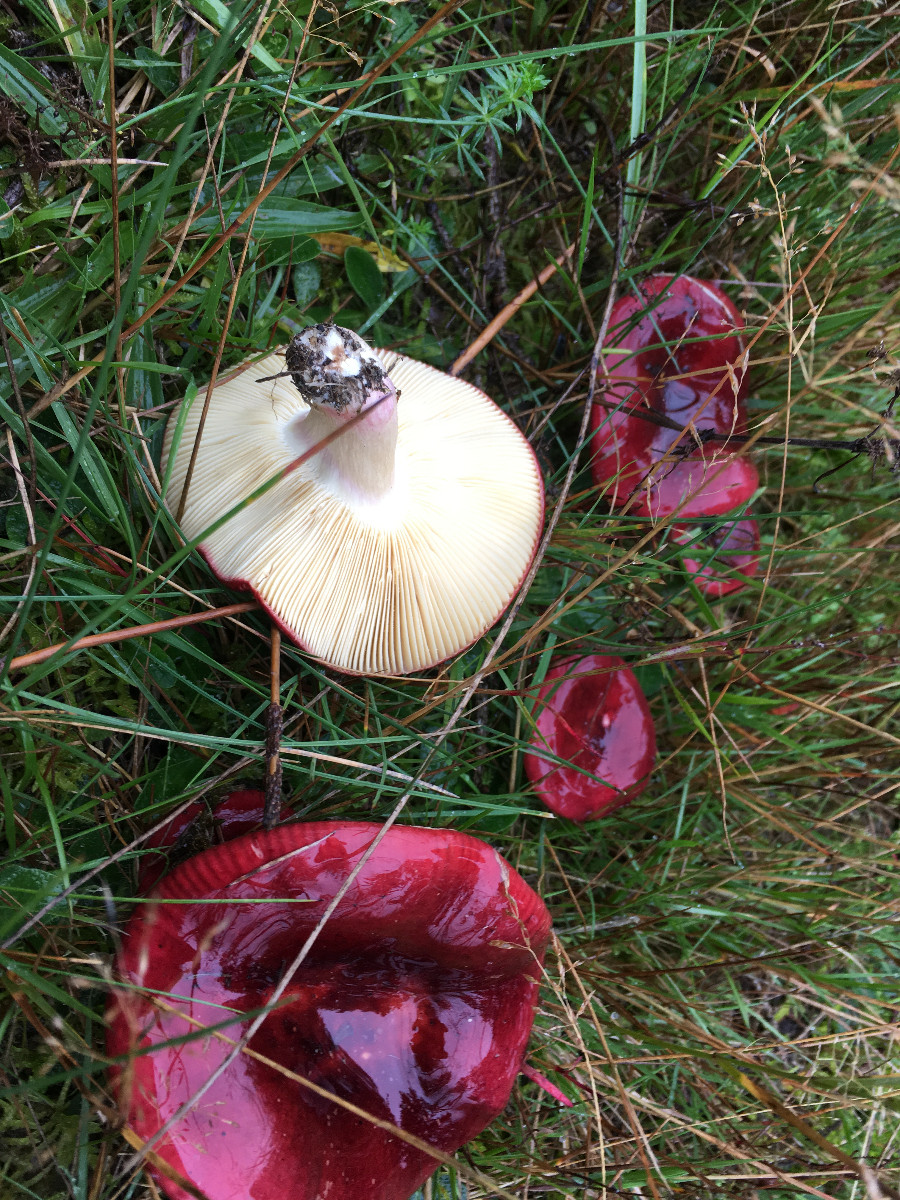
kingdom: Fungi
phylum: Basidiomycota
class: Agaricomycetes
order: Russulales
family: Russulaceae
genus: Russula
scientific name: Russula xerampelina
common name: hummer-skørhat
